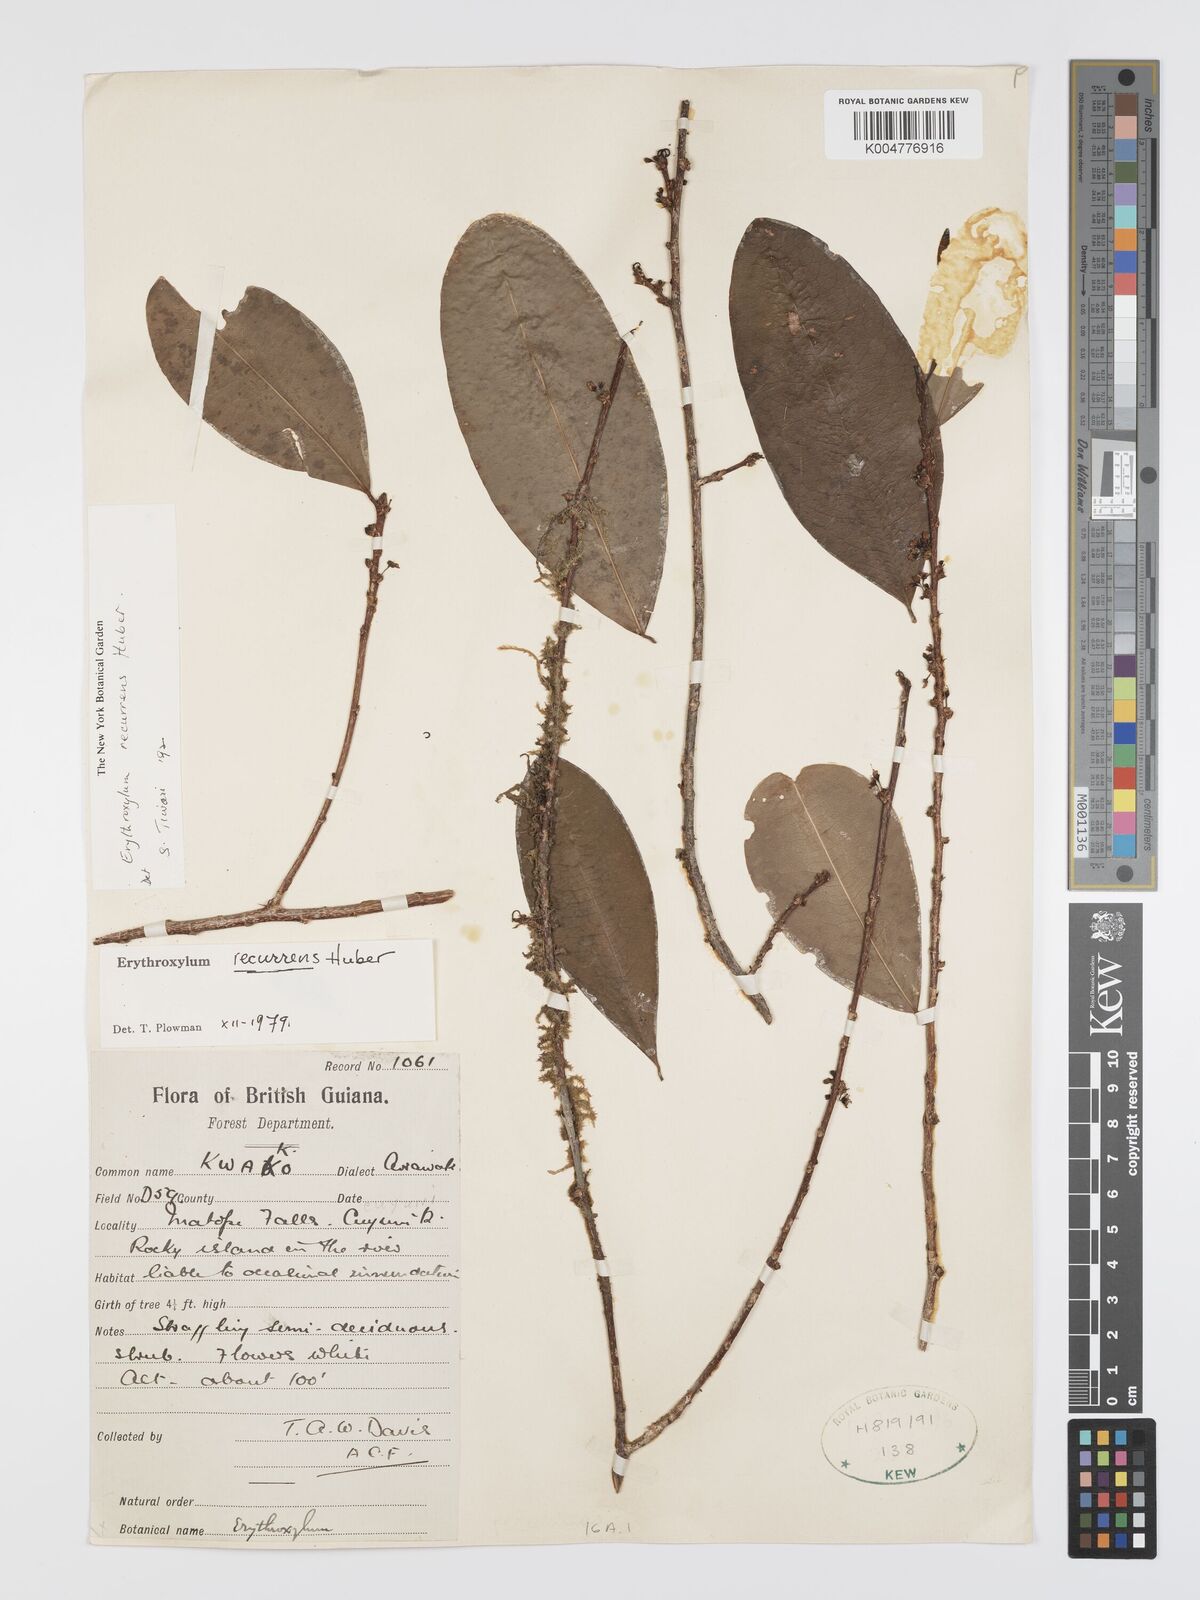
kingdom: Plantae
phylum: Tracheophyta
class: Magnoliopsida
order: Malpighiales
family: Erythroxylaceae
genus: Erythroxylum
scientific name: Erythroxylum gracilipes
